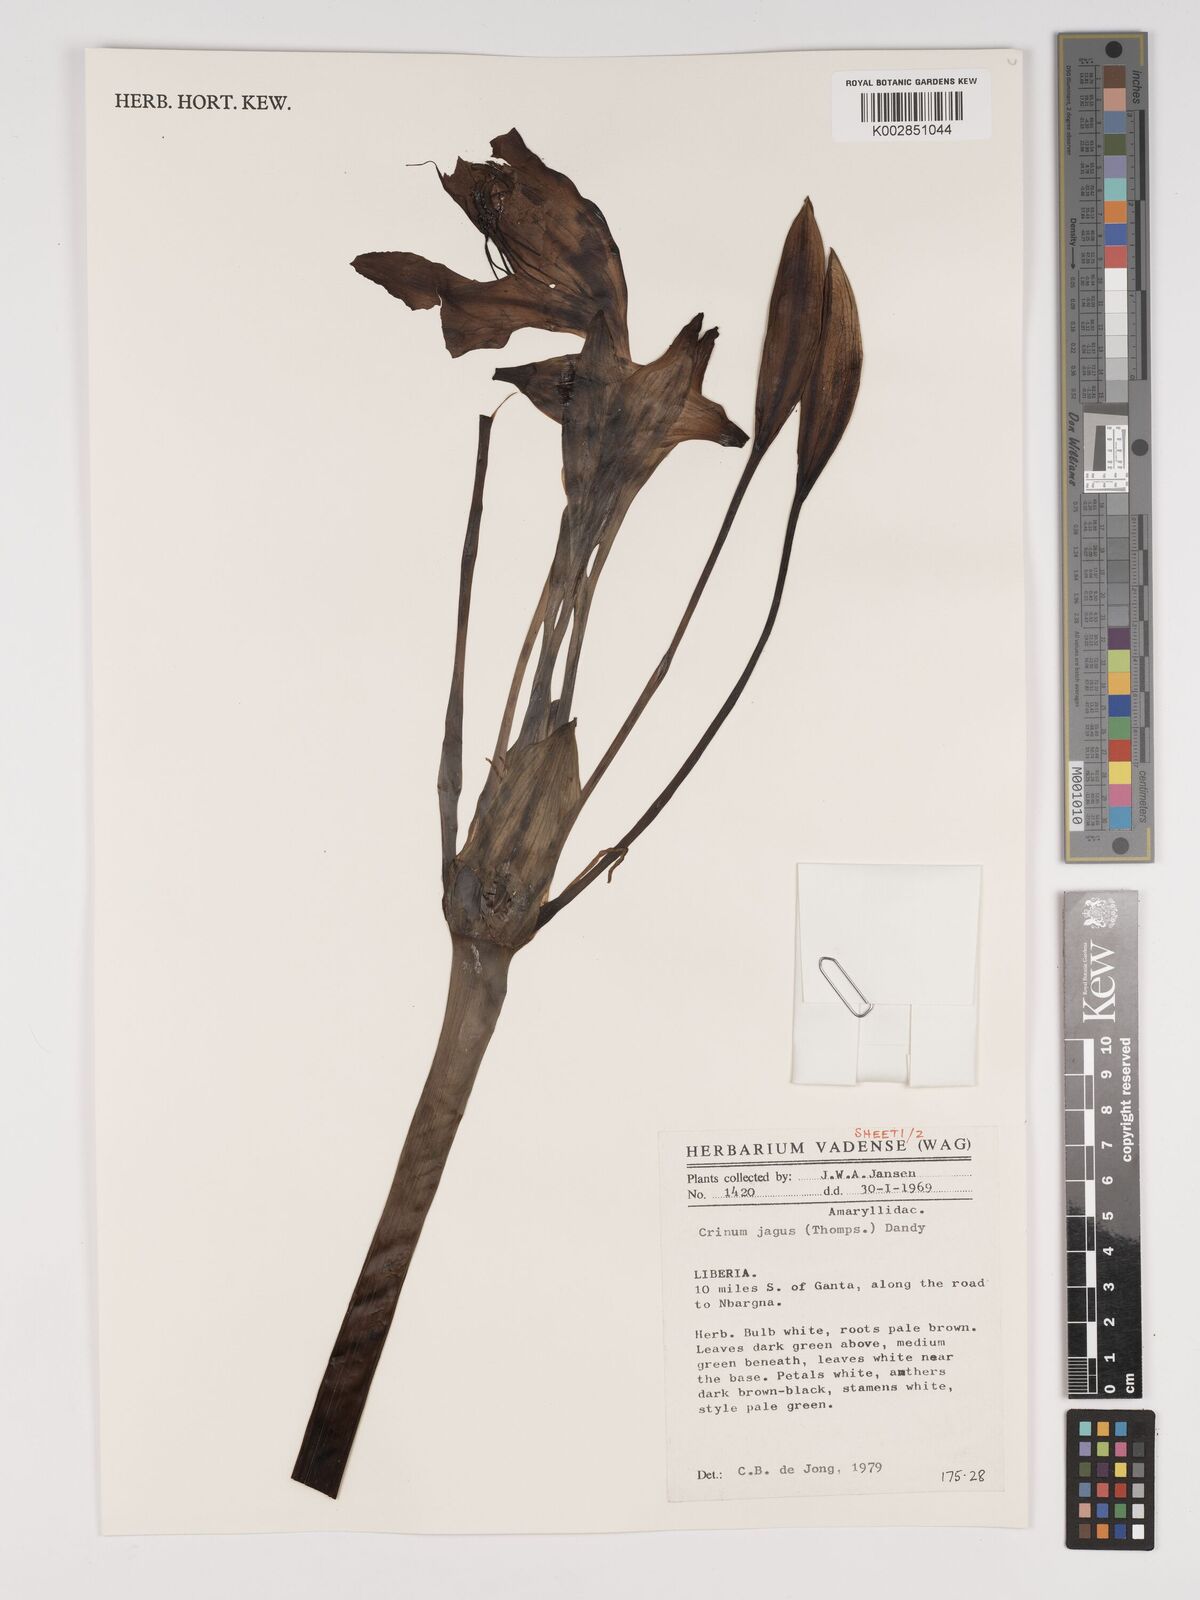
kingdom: Plantae
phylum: Tracheophyta
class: Liliopsida
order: Asparagales
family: Amaryllidaceae
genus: Crinum
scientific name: Crinum jagus
